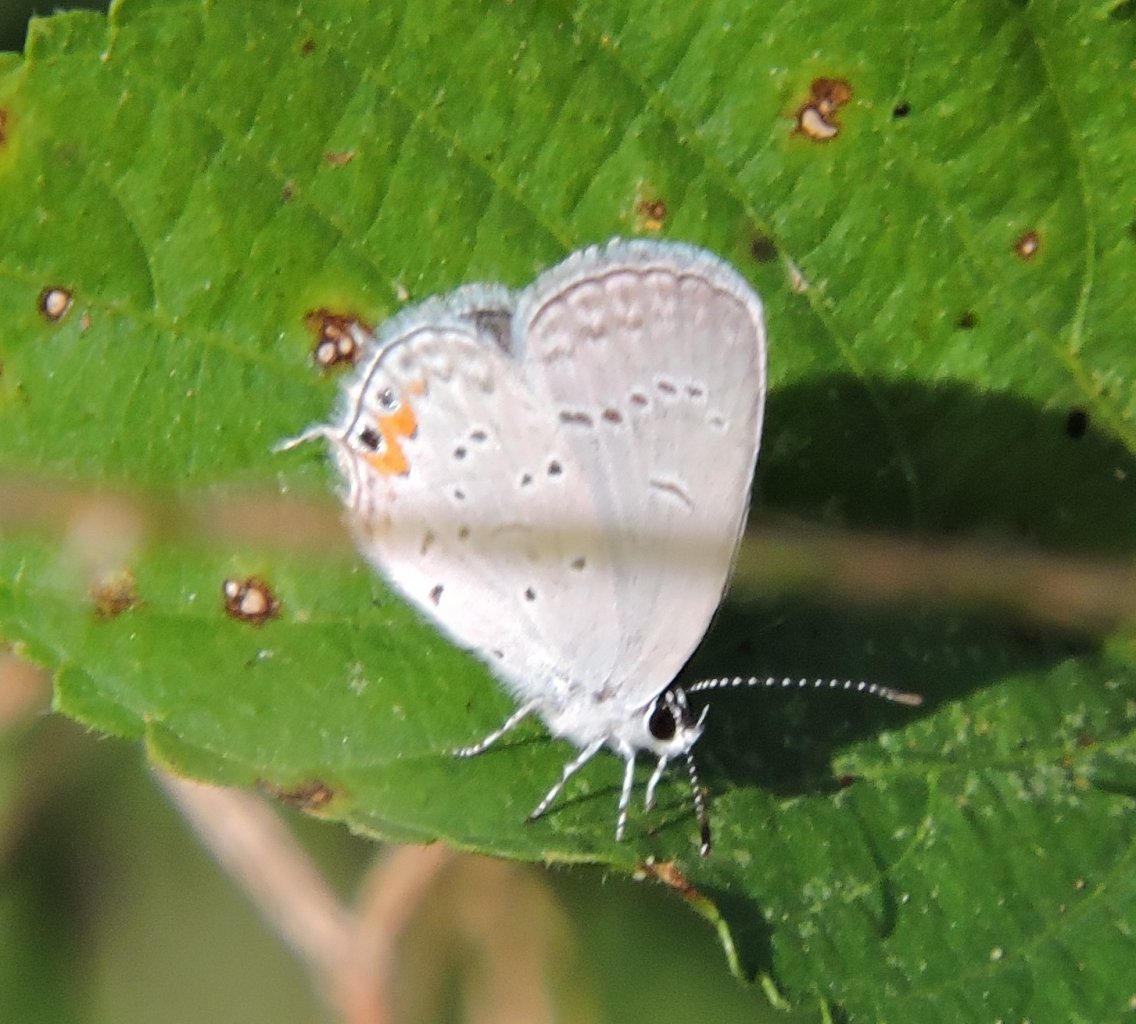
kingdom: Animalia
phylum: Arthropoda
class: Insecta
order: Lepidoptera
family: Lycaenidae
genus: Elkalyce
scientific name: Elkalyce comyntas
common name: Eastern Tailed-Blue
